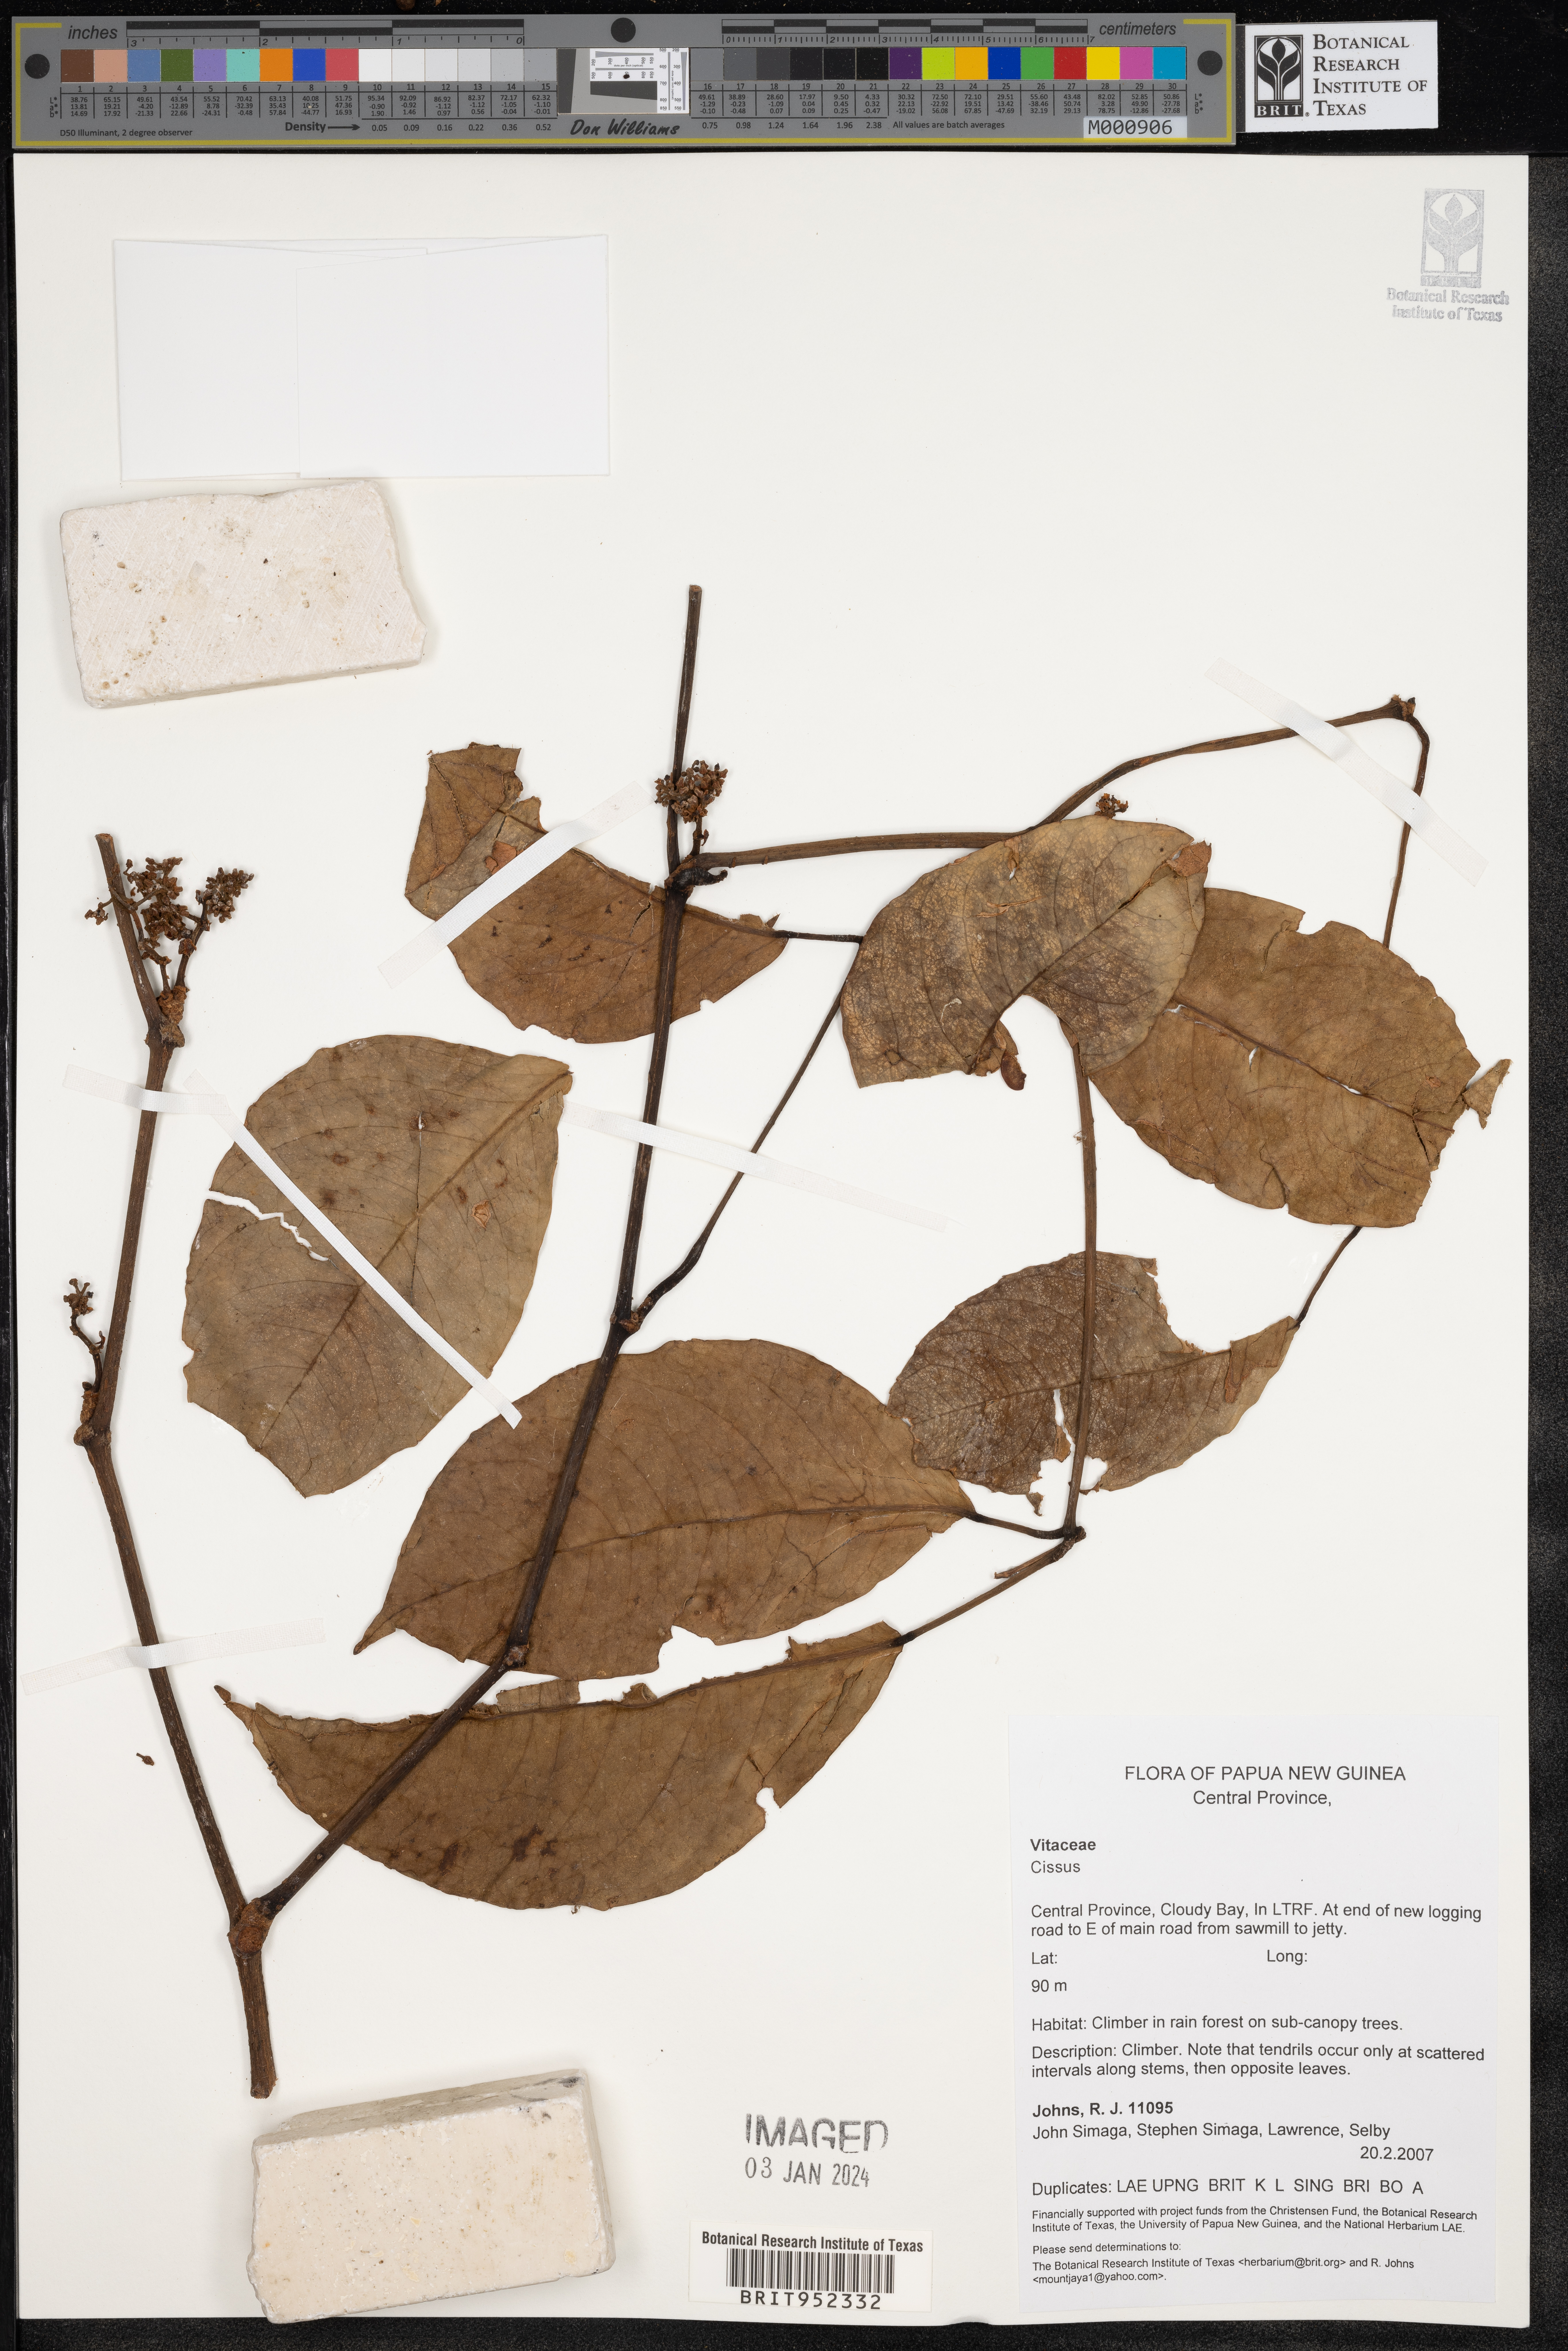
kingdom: Plantae
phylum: Tracheophyta
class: Magnoliopsida
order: Vitales
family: Vitaceae
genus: Cissus
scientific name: Cissus
